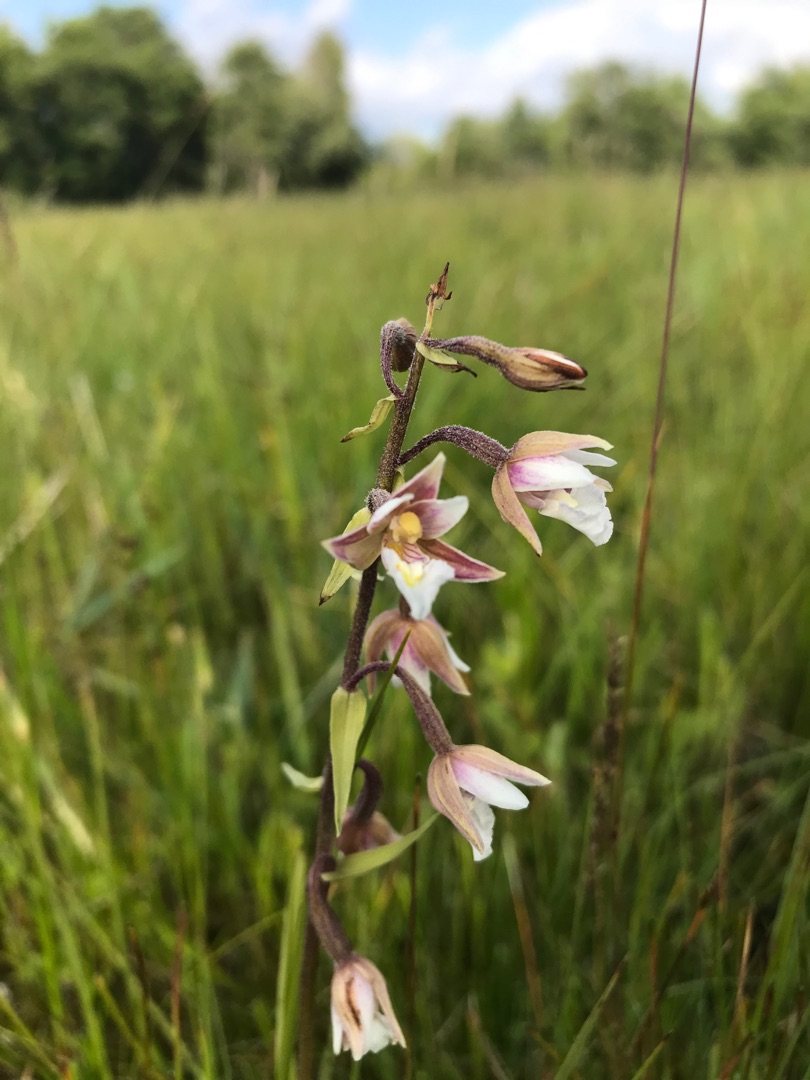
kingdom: Plantae
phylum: Tracheophyta
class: Liliopsida
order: Asparagales
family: Orchidaceae
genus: Epipactis
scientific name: Epipactis palustris
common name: Sump-hullæbe
